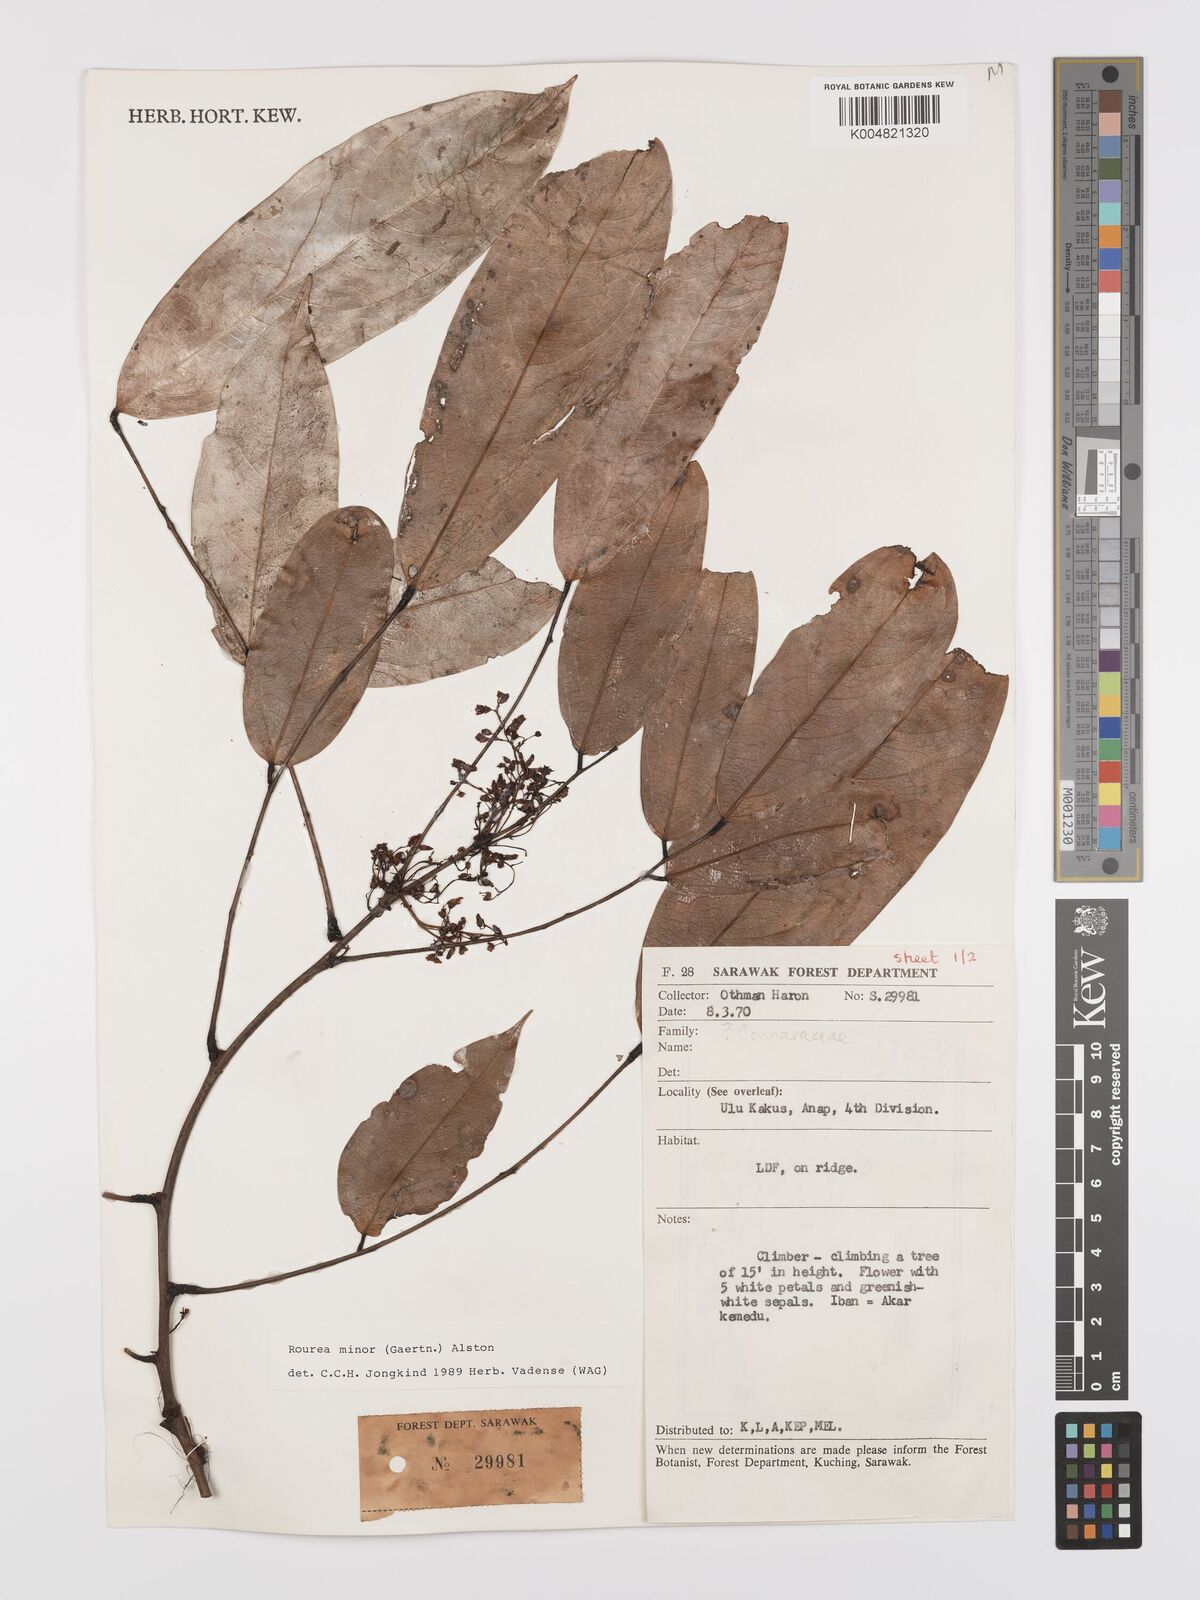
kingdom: Plantae
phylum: Tracheophyta
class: Magnoliopsida
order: Oxalidales
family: Connaraceae
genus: Rourea
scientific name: Rourea minor
